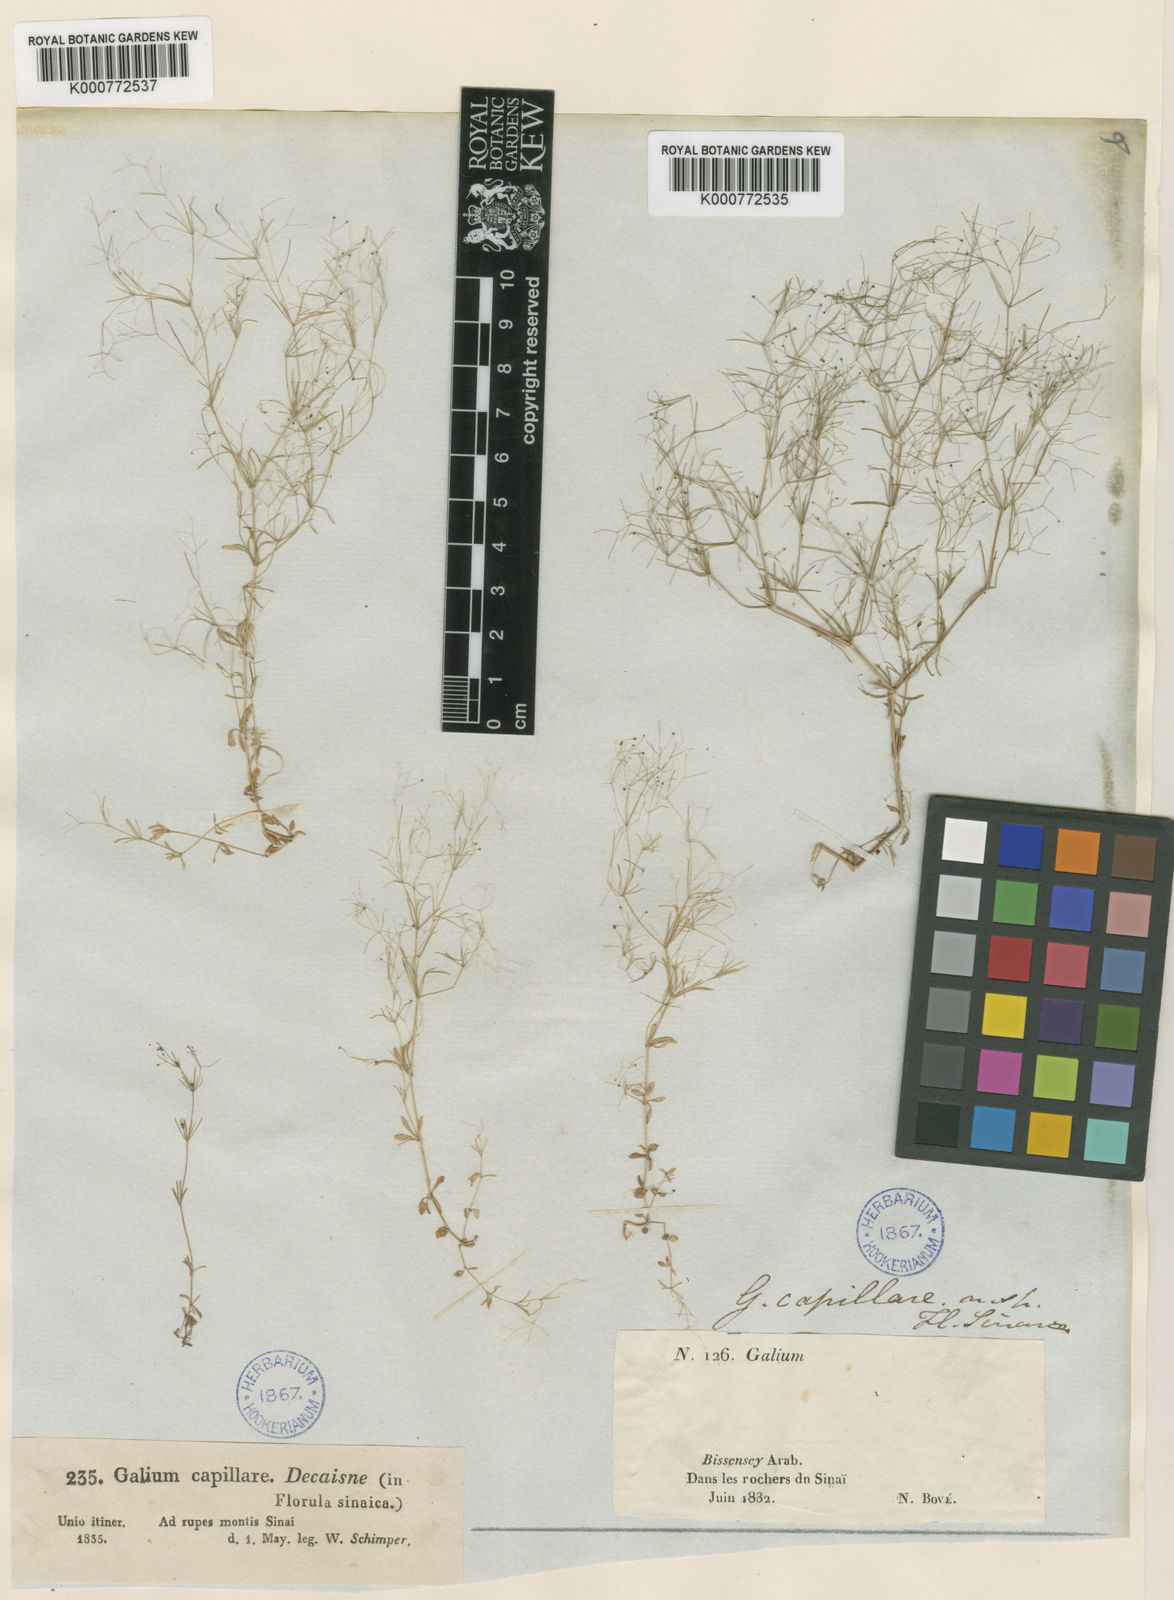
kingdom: Plantae
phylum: Tracheophyta
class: Magnoliopsida
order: Gentianales
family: Rubiaceae
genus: Galium
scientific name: Galium setaceum
